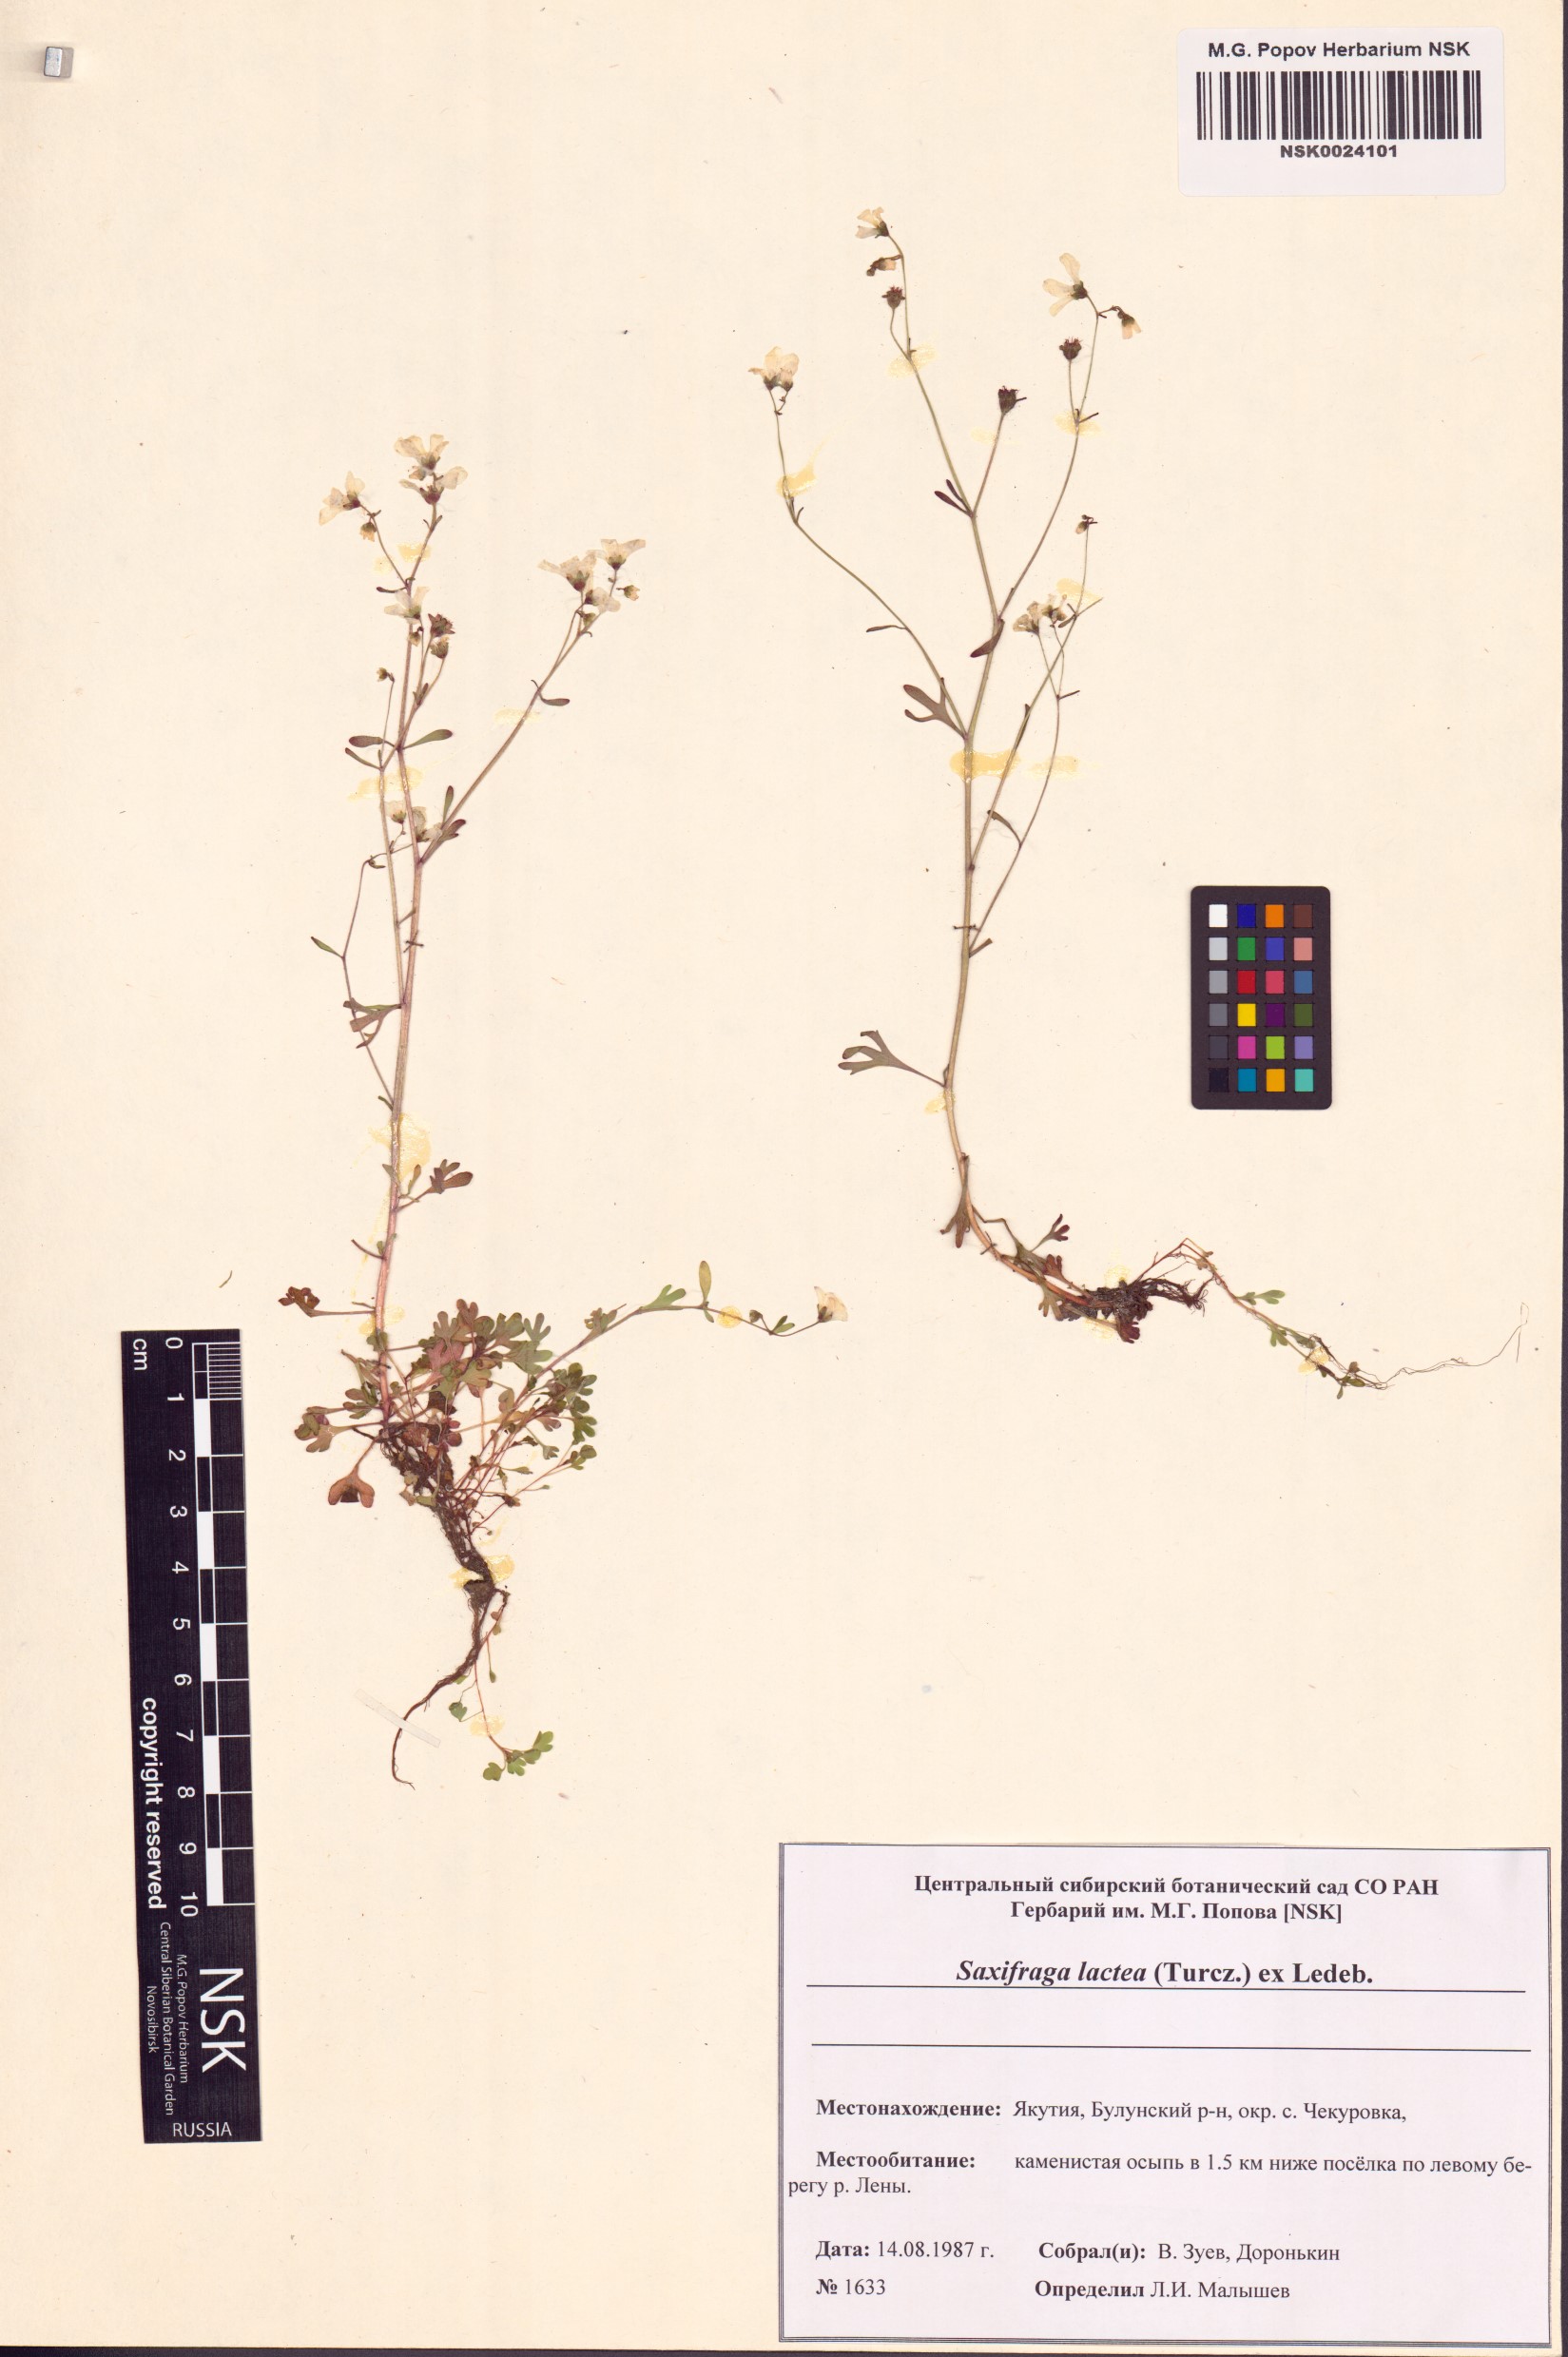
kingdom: Plantae
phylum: Tracheophyta
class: Magnoliopsida
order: Saxifragales
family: Saxifragaceae
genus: Saxifraga
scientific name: Saxifraga lactea
